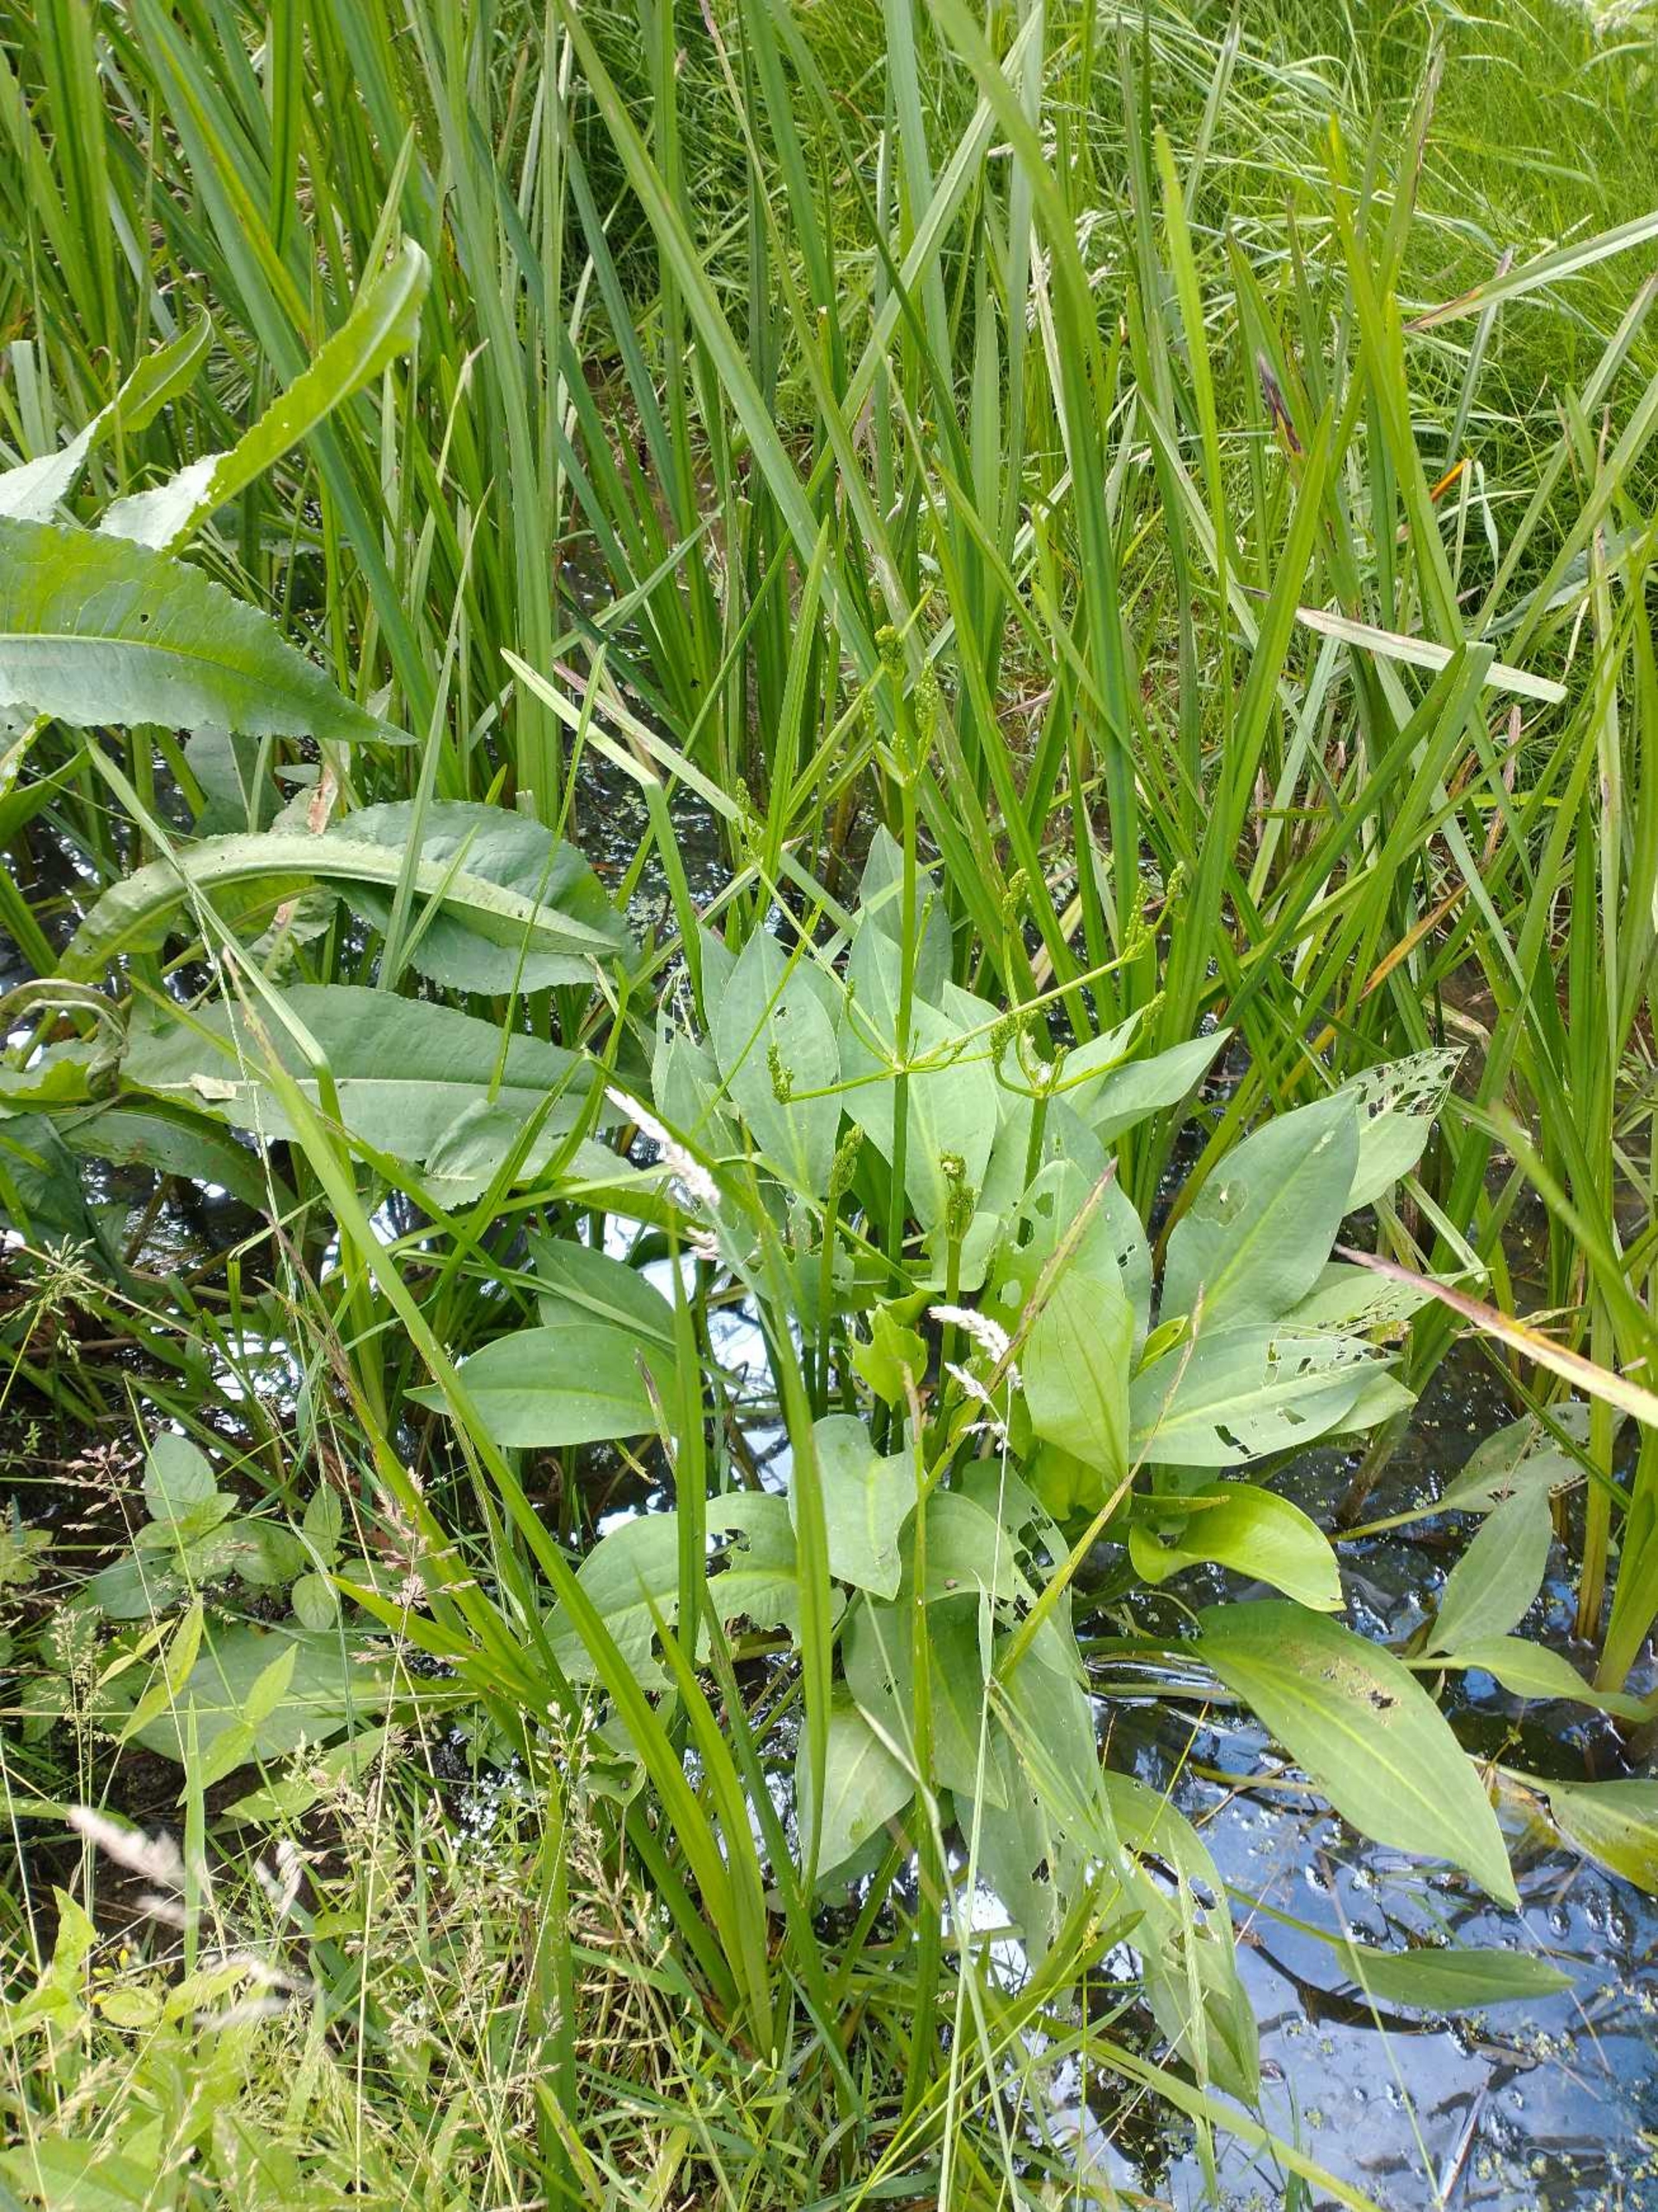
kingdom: Plantae
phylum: Tracheophyta
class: Liliopsida
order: Alismatales
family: Alismataceae
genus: Alisma
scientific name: Alisma plantago-aquatica
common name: Vejbred-skeblad
